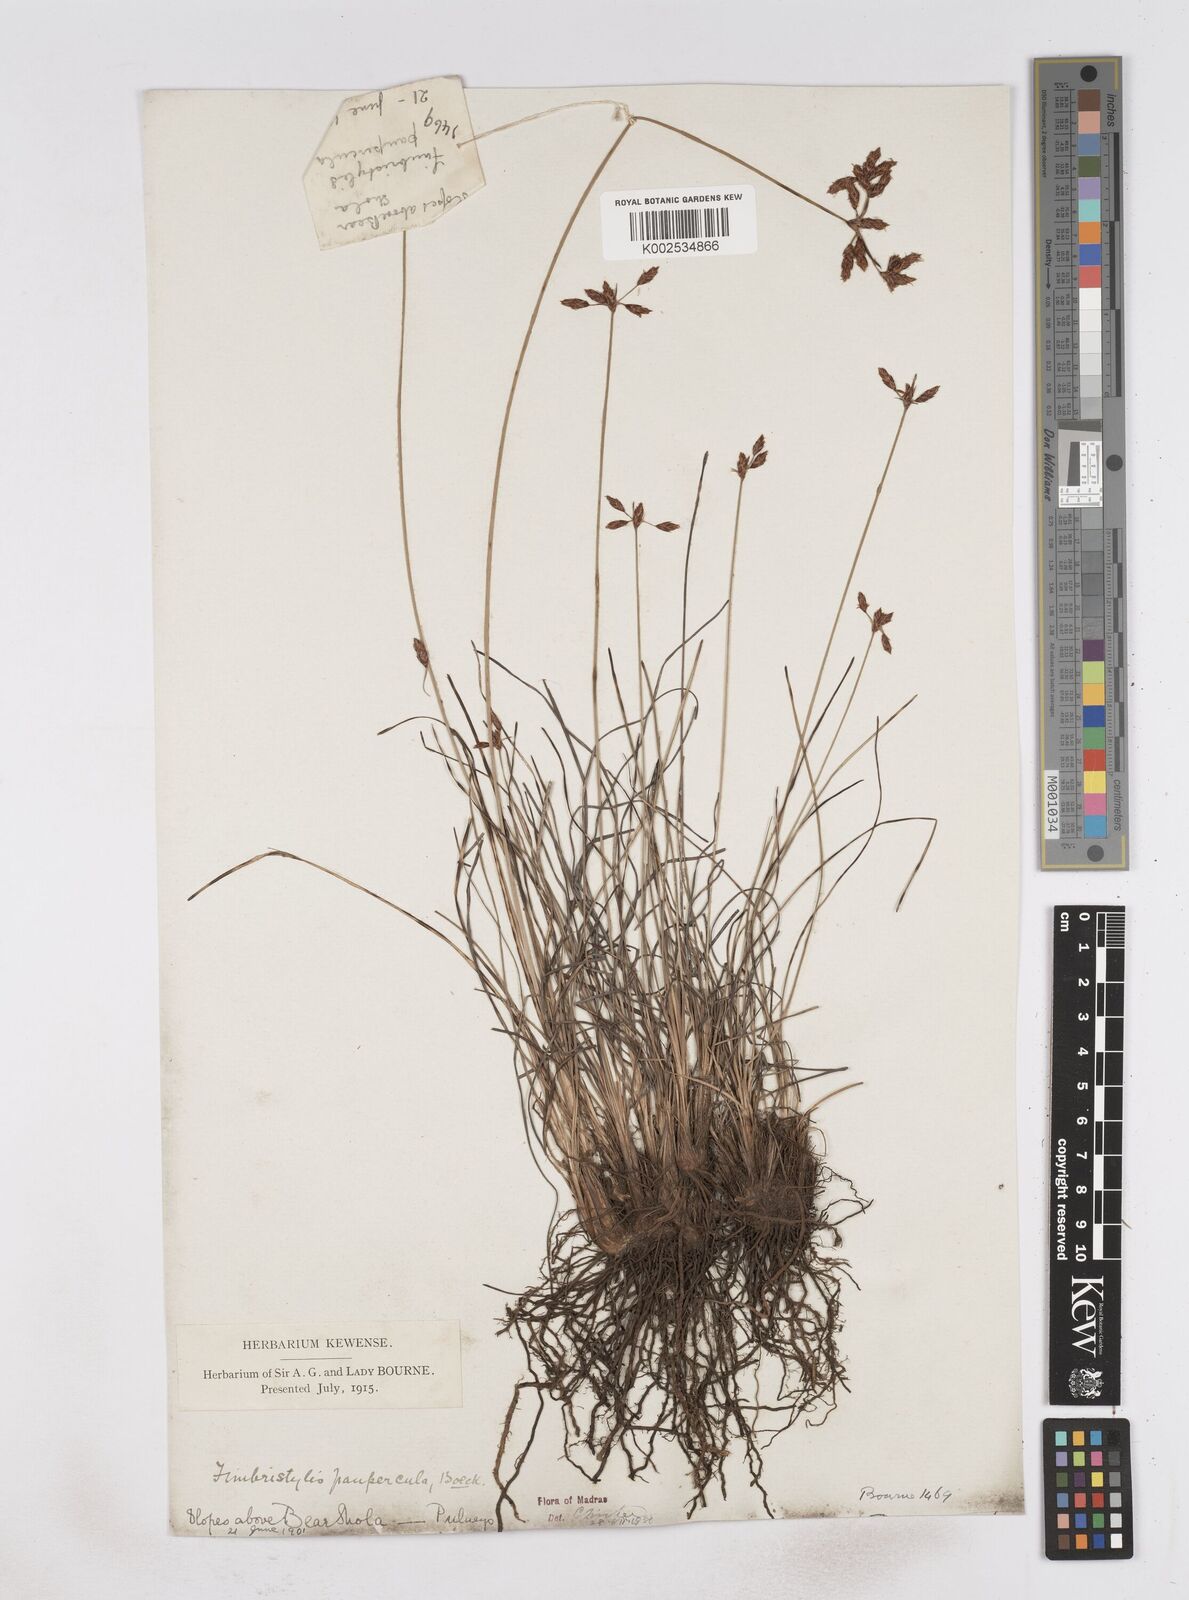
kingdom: Plantae
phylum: Tracheophyta
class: Liliopsida
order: Poales
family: Cyperaceae
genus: Fimbristylis
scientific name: Fimbristylis paupercula
